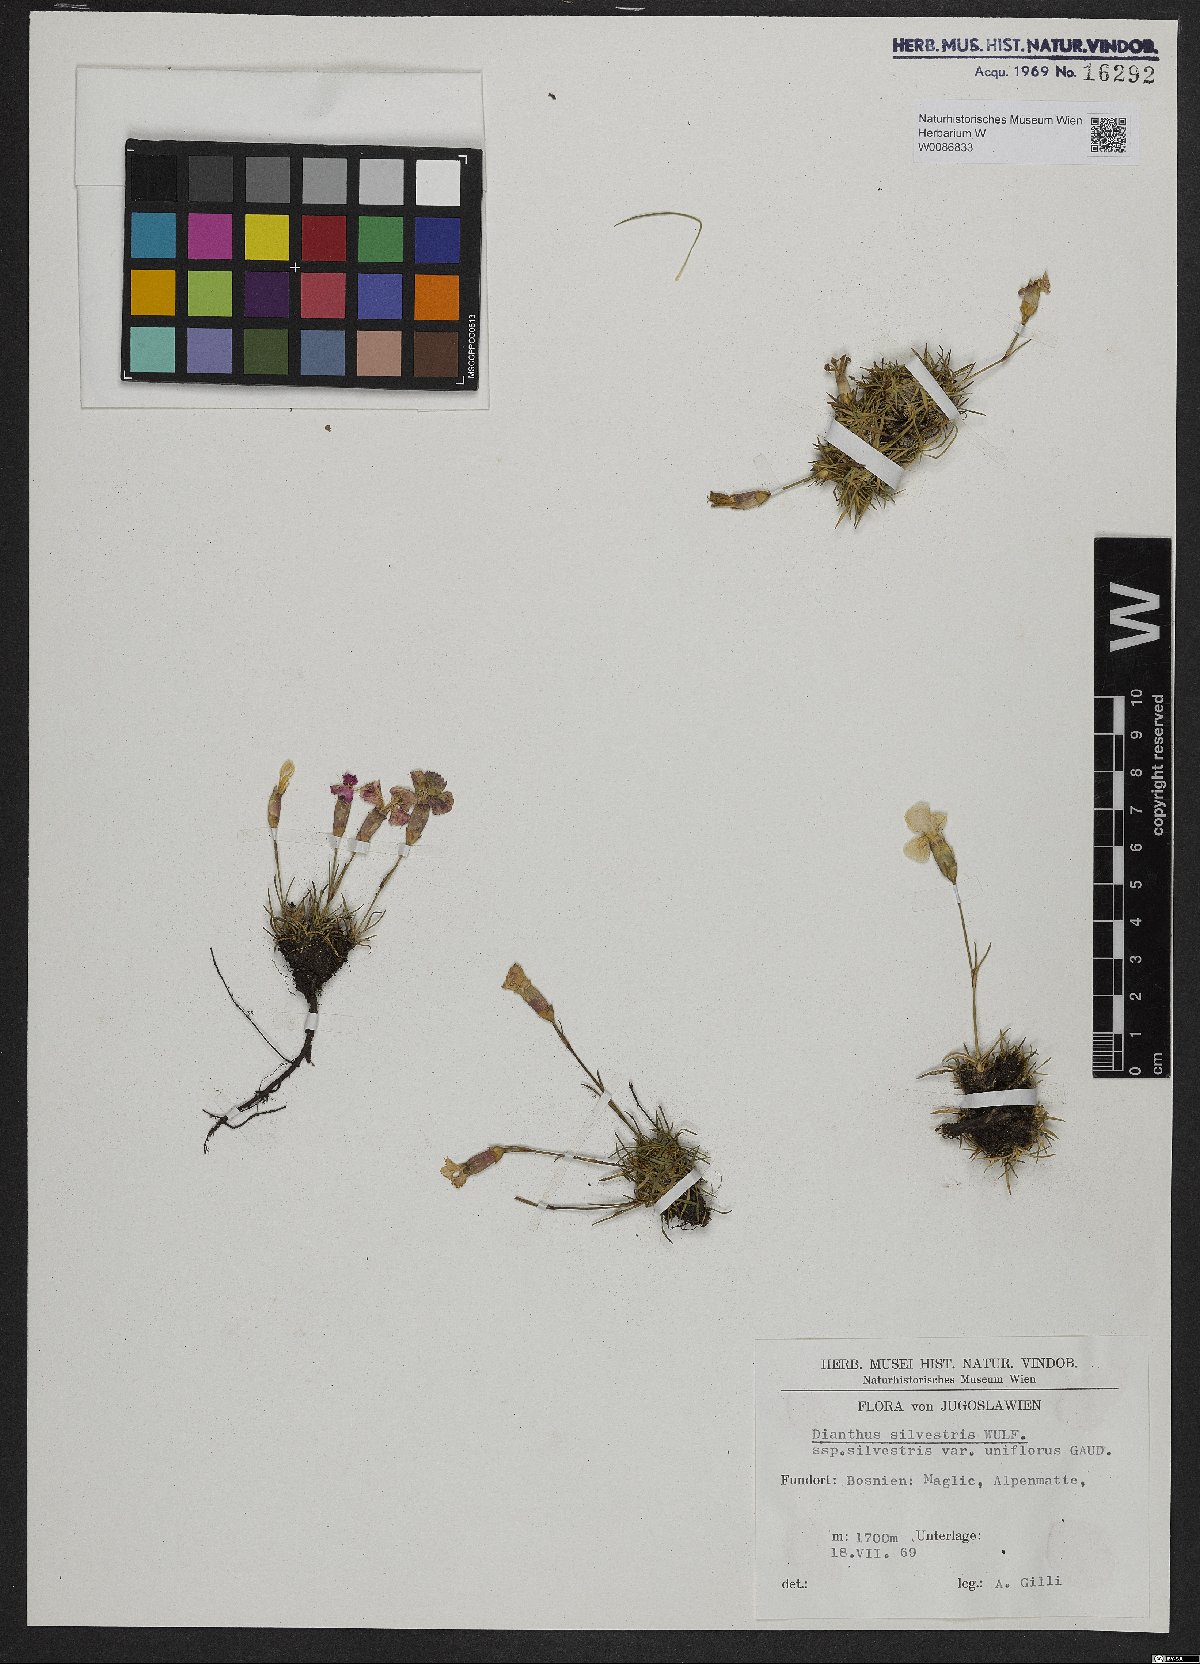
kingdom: Plantae
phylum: Tracheophyta
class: Magnoliopsida
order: Caryophyllales
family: Caryophyllaceae
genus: Dianthus
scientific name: Dianthus sylvestris
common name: Wood pink
